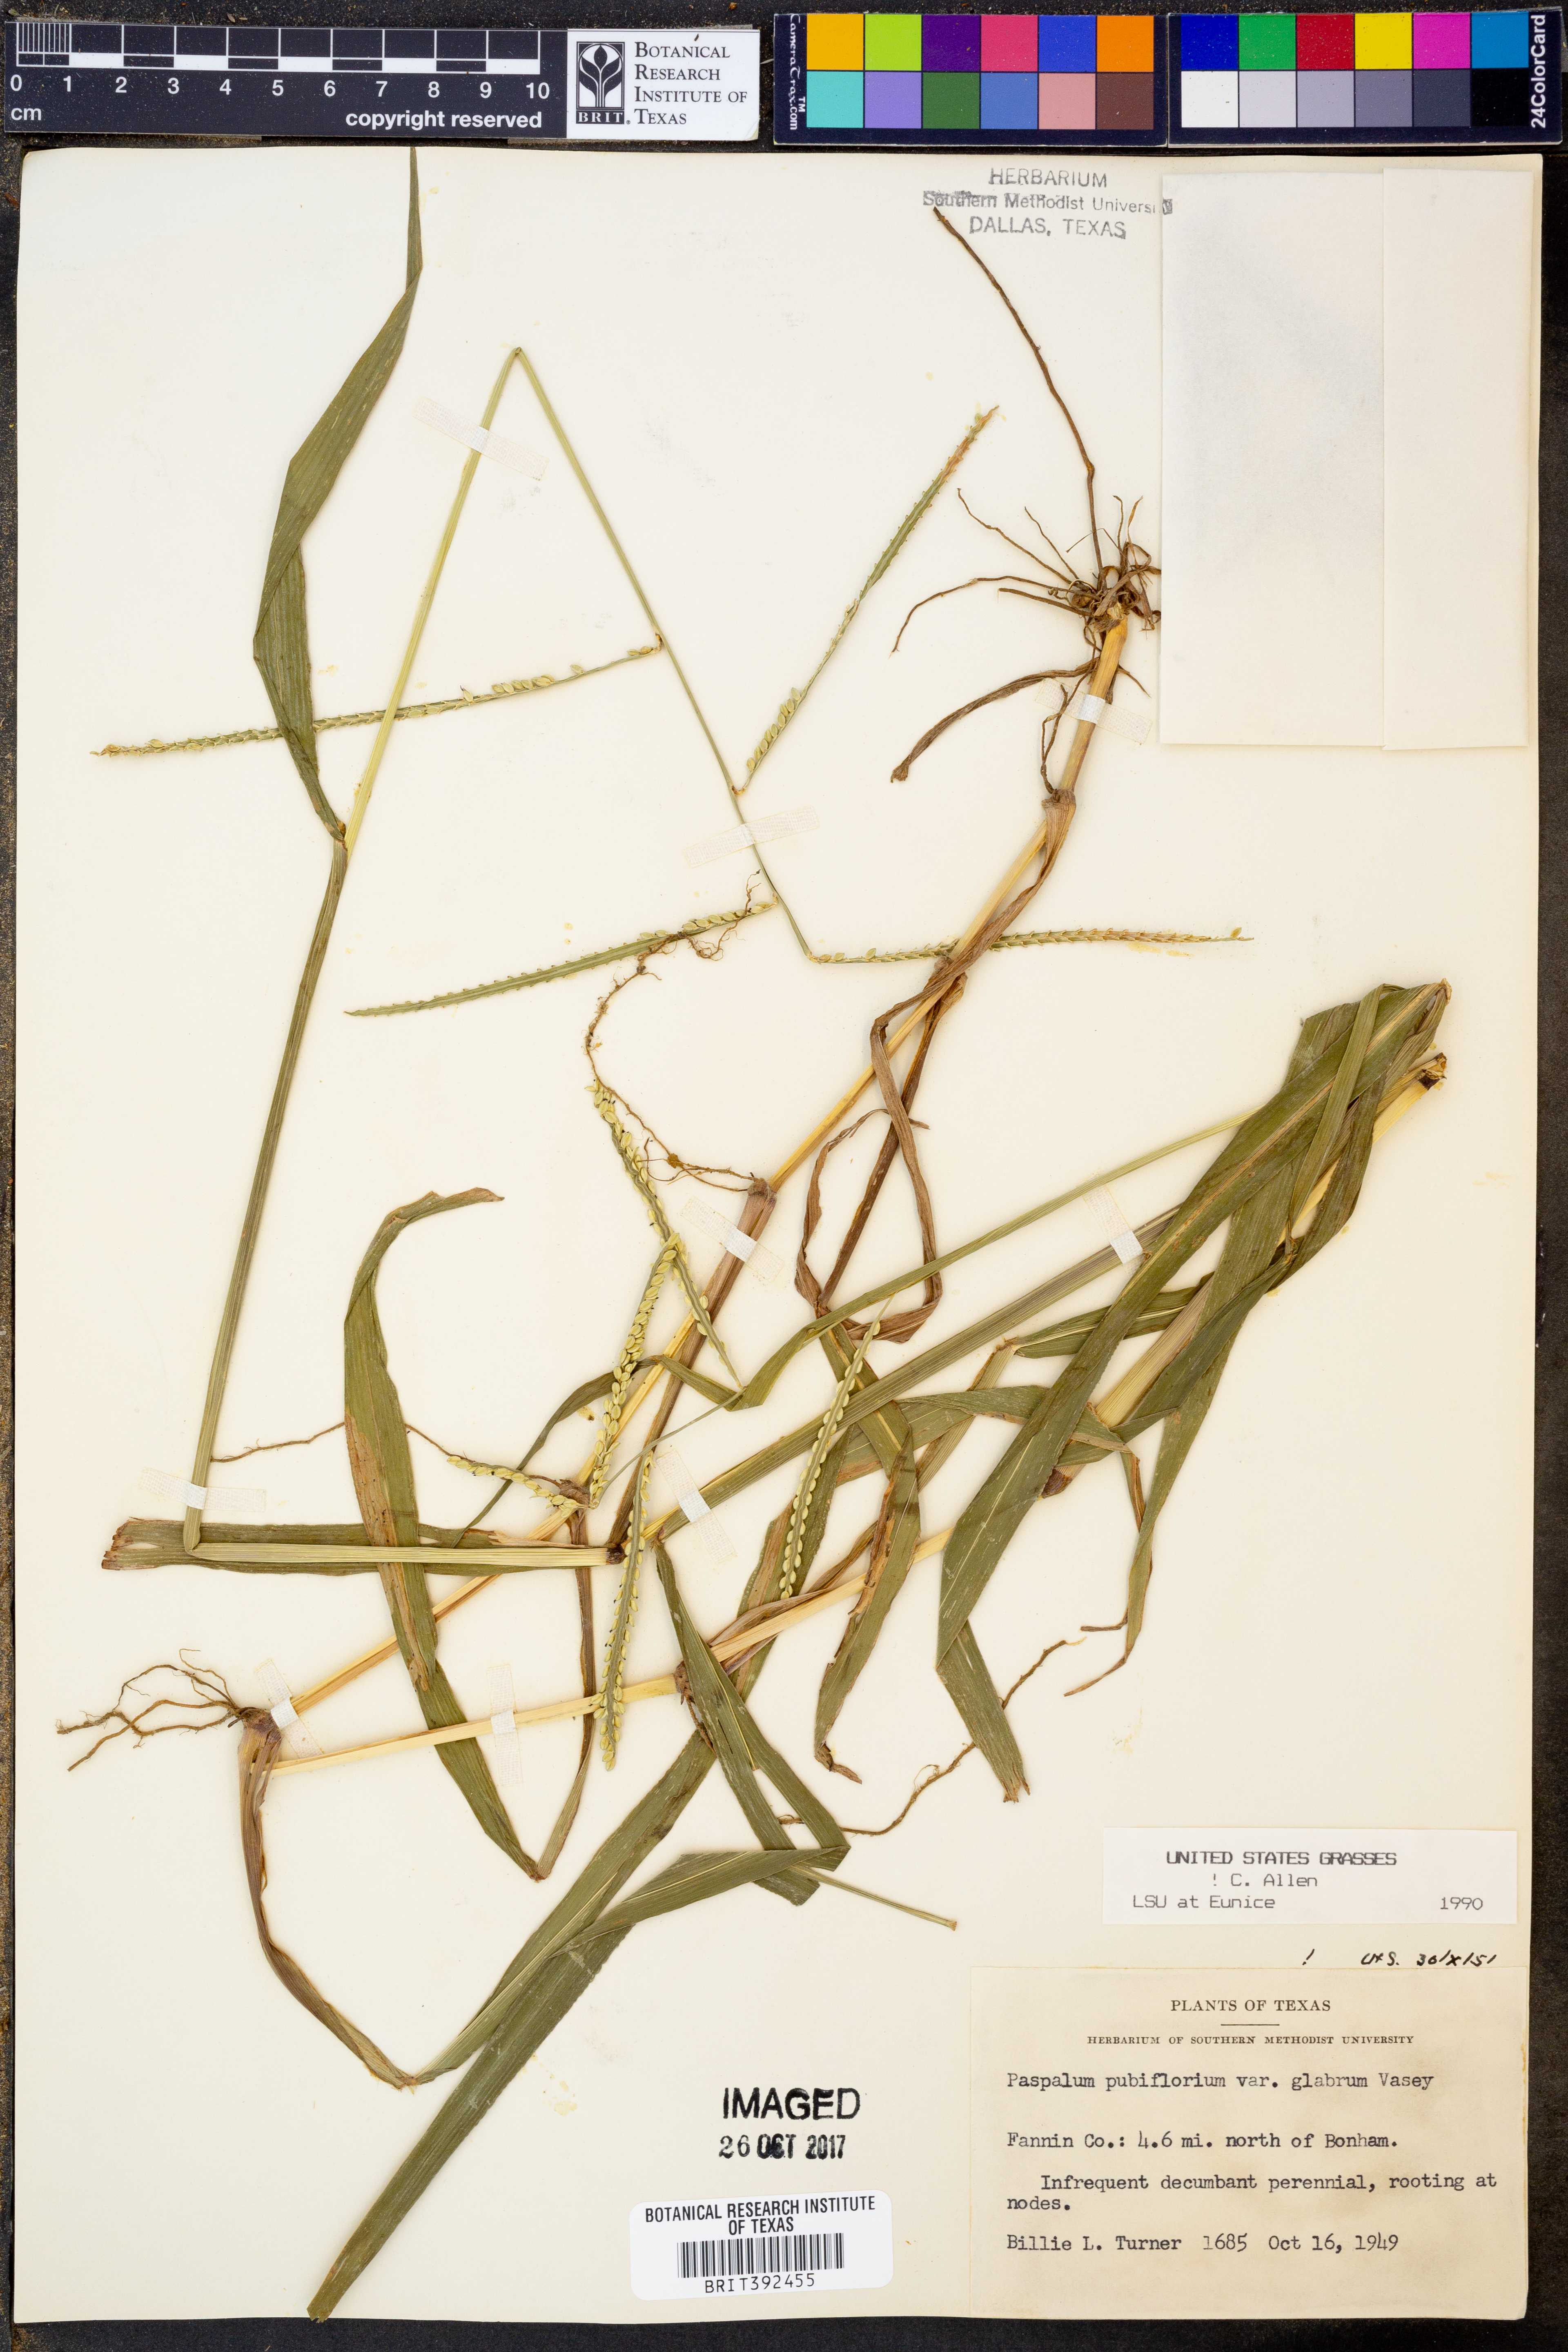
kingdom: Plantae
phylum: Tracheophyta
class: Liliopsida
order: Poales
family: Poaceae
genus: Paspalum
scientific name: Paspalum pubiflorum
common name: Hairy-seed paspalum
